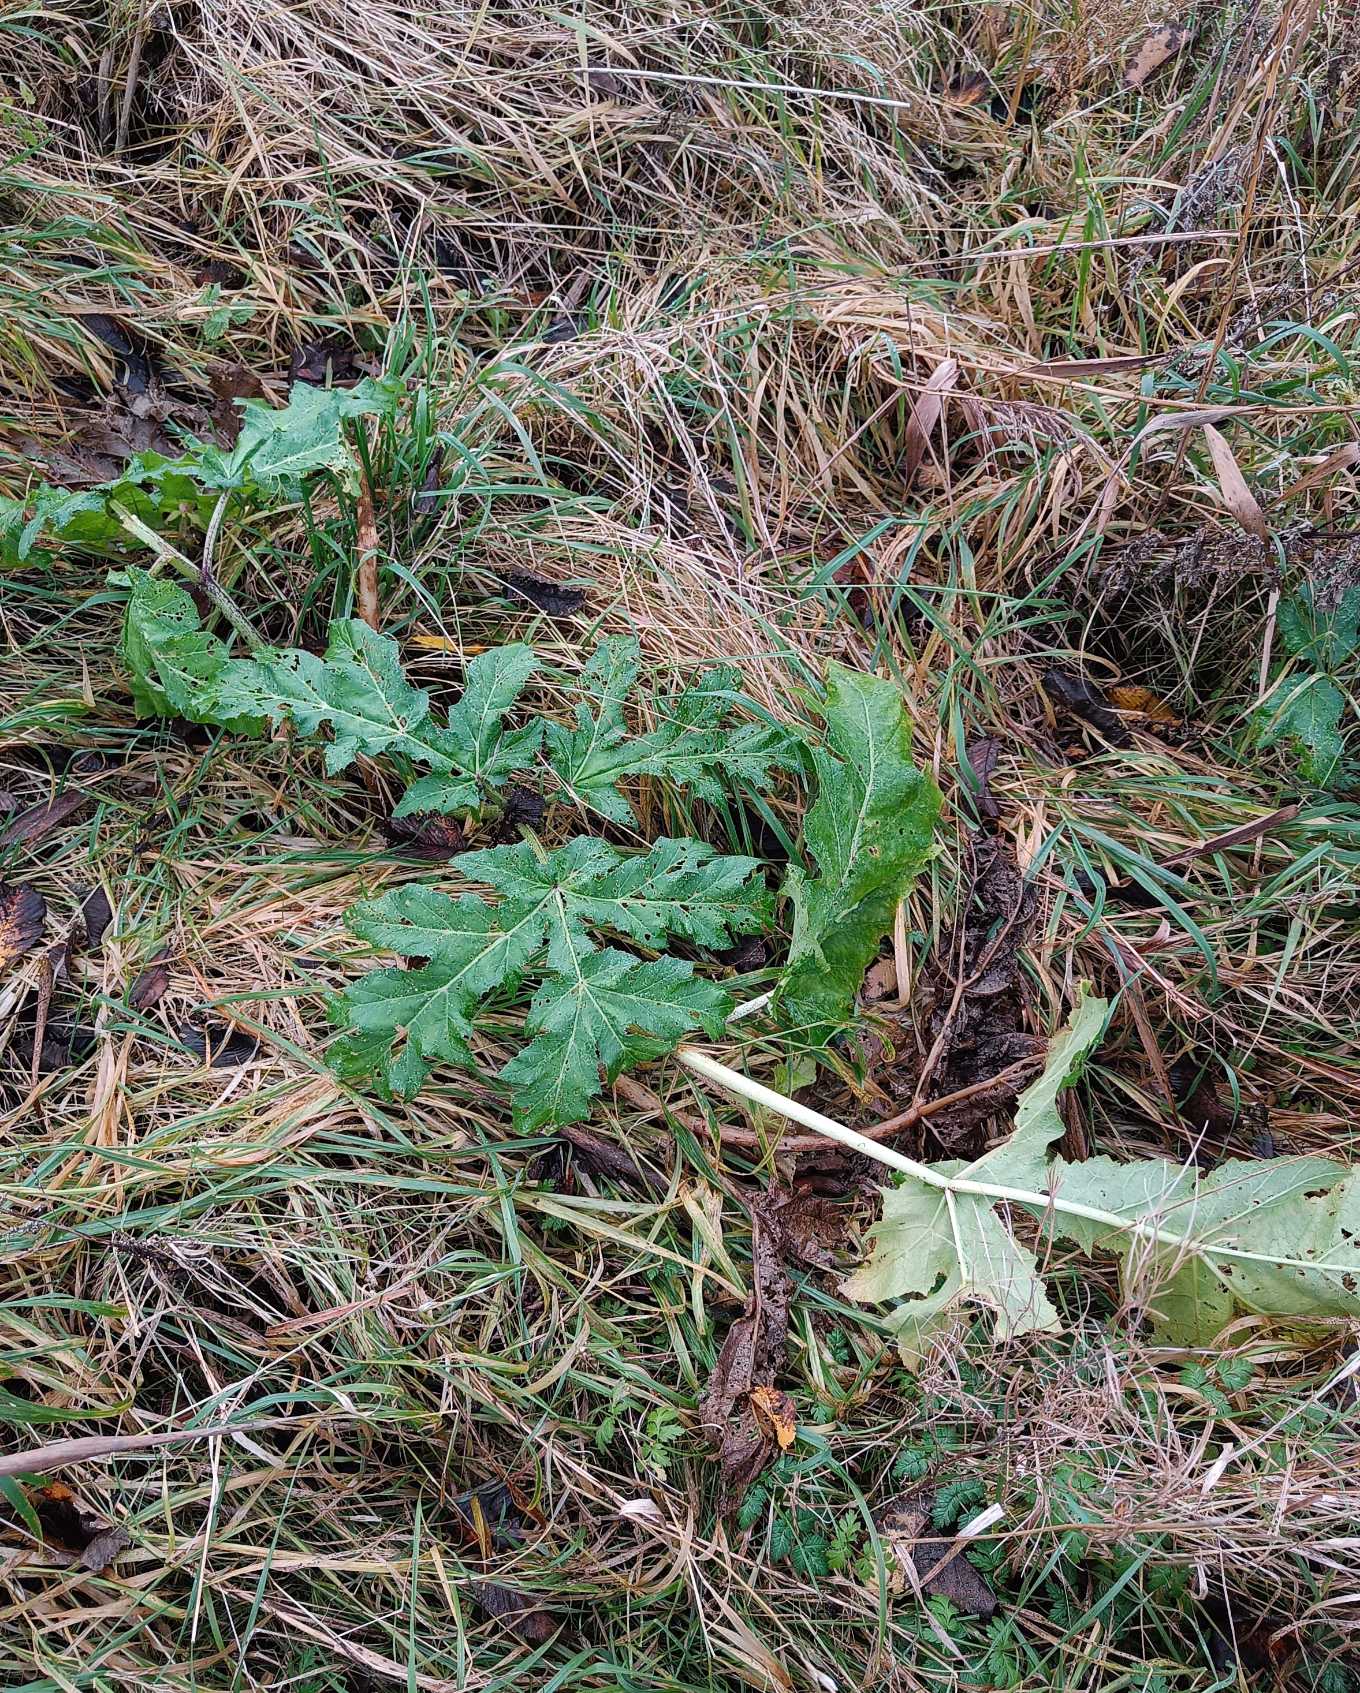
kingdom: Plantae
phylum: Tracheophyta
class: Magnoliopsida
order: Apiales
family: Apiaceae
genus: Heracleum
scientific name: Heracleum mantegazzianum
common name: Kæmpe-bjørneklo
